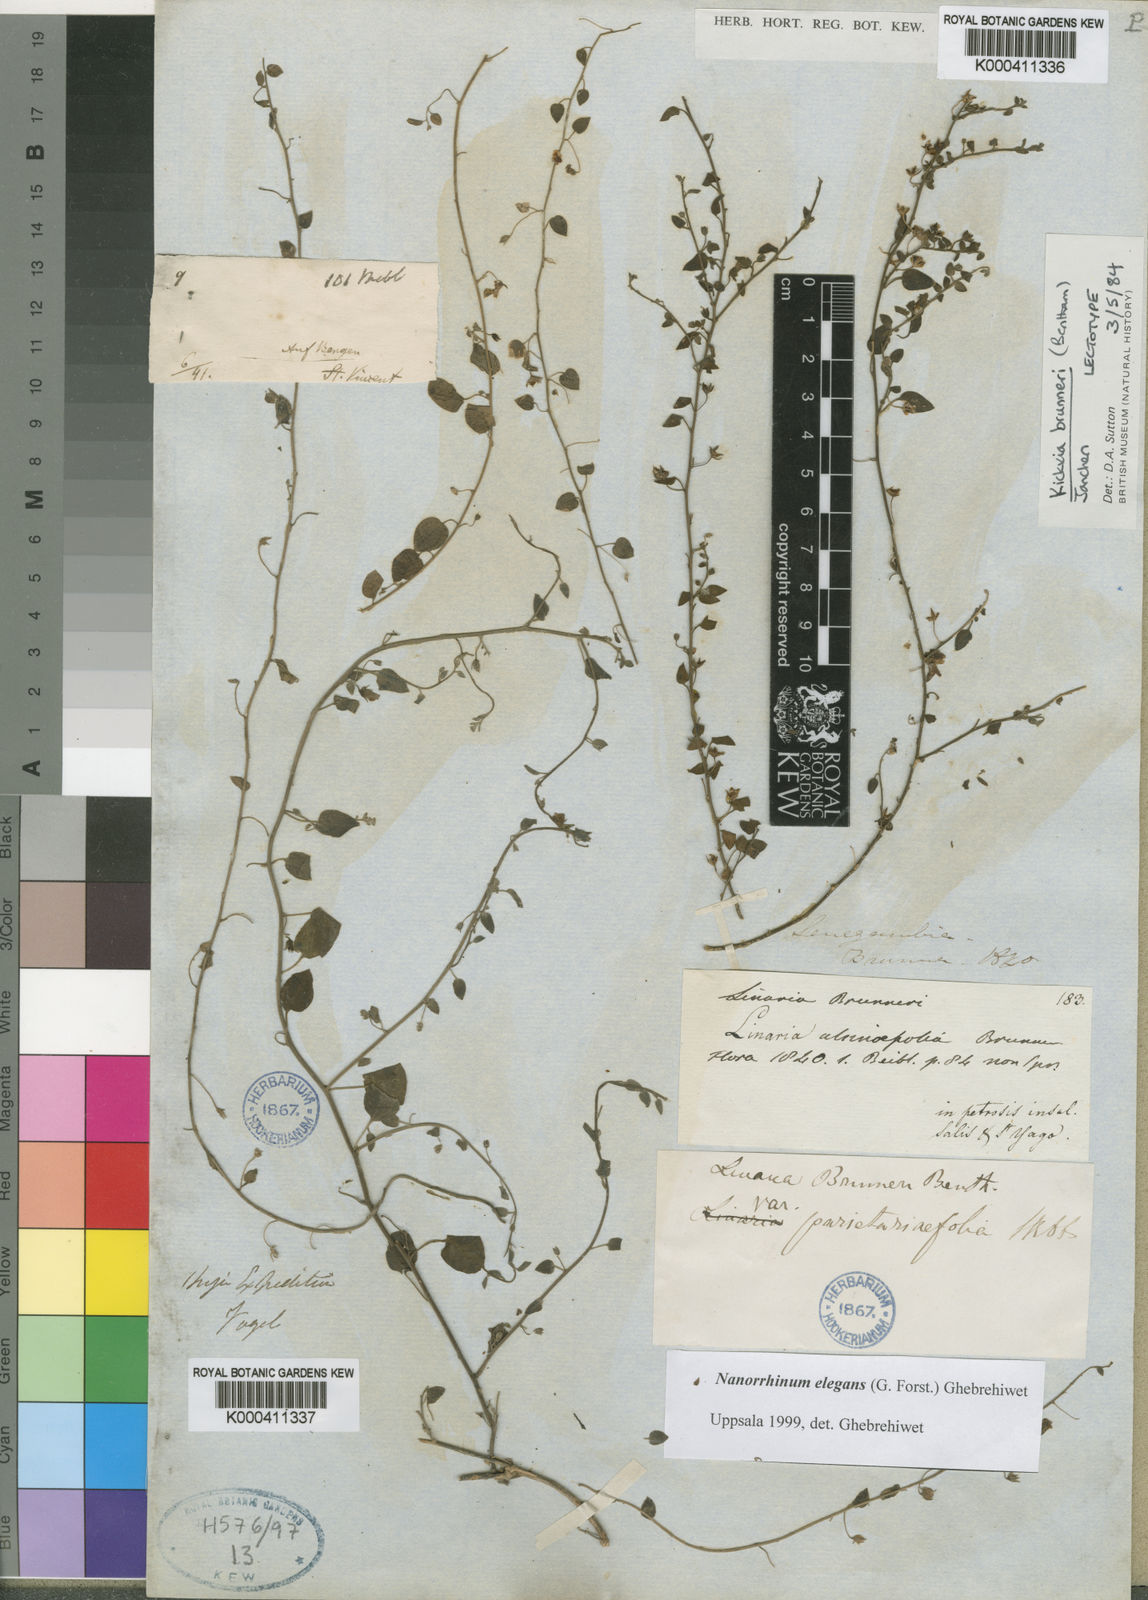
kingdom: Plantae
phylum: Tracheophyta
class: Magnoliopsida
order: Lamiales
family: Plantaginaceae
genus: Linaria
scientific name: Linaria bordiana
